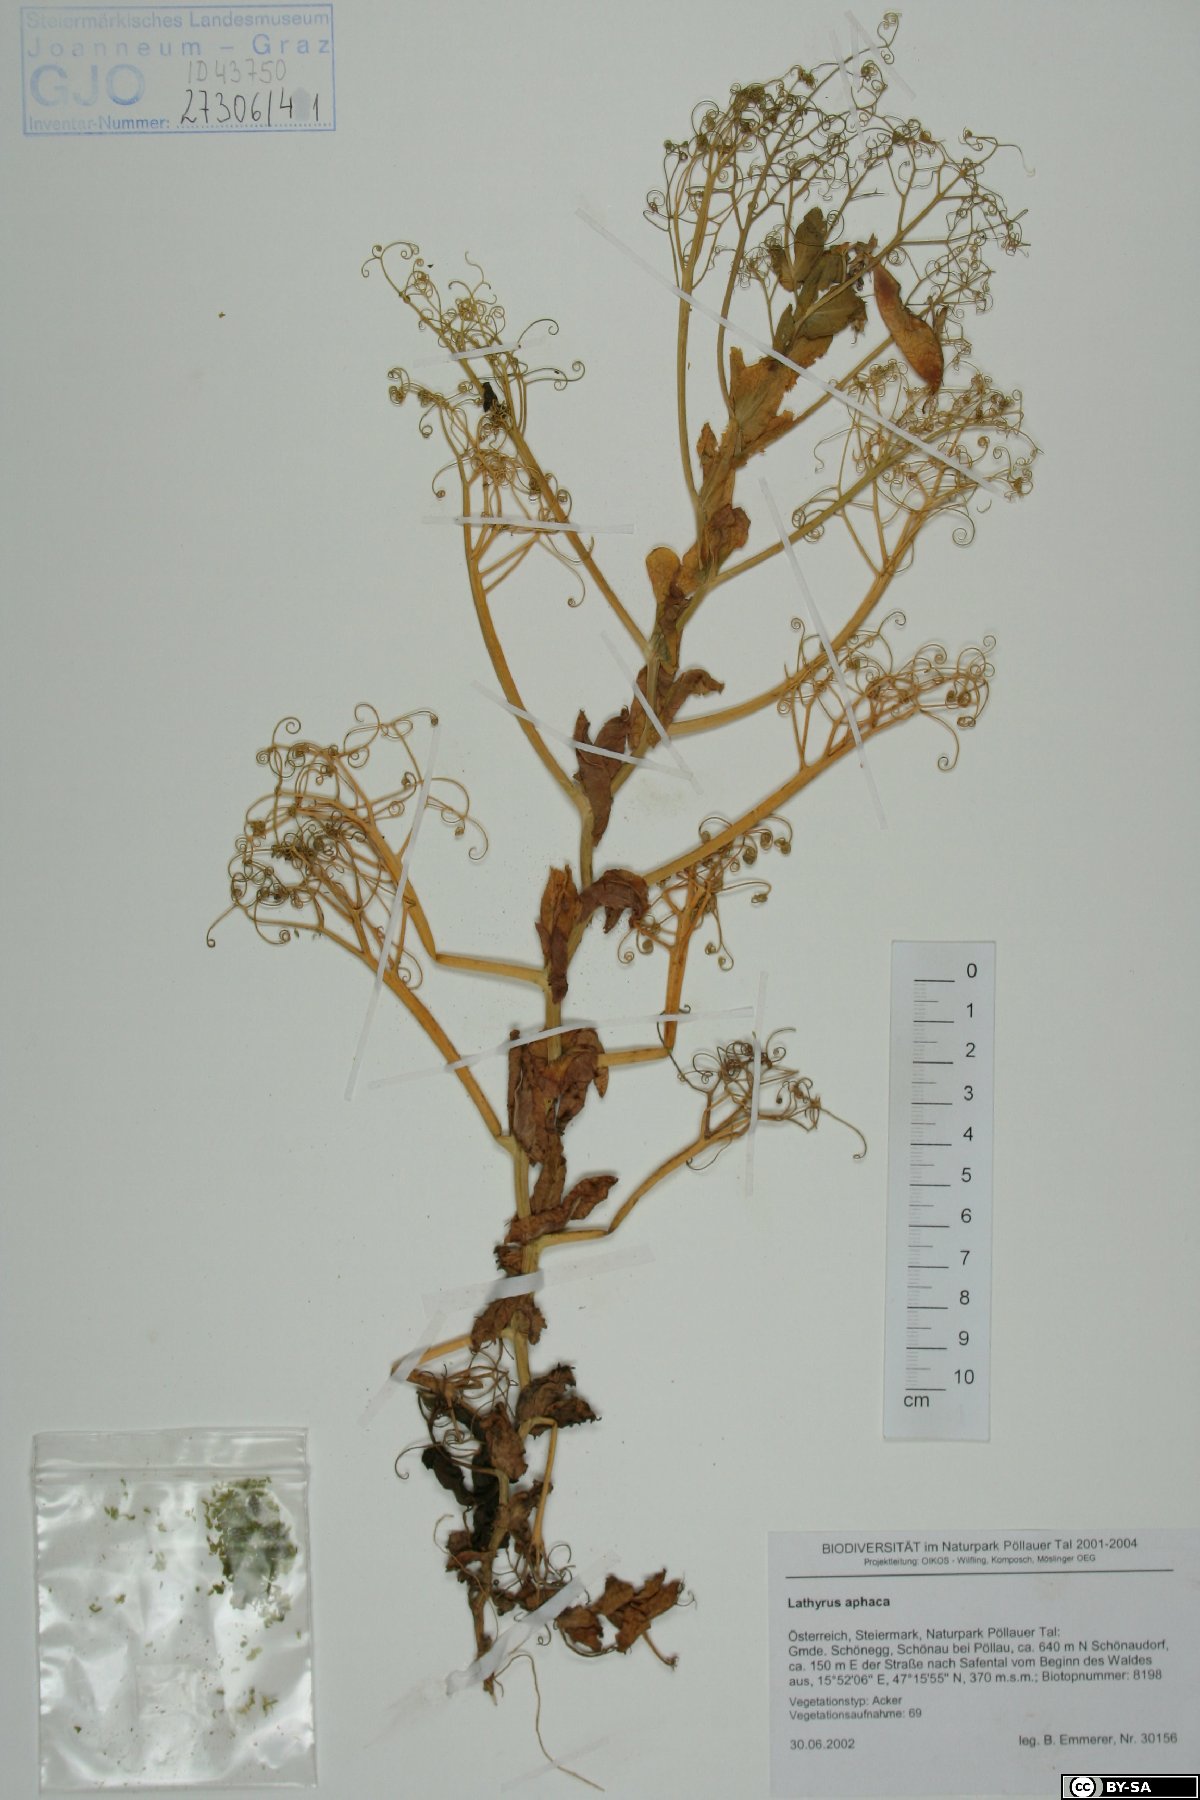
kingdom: Plantae
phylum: Tracheophyta
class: Magnoliopsida
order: Fabales
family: Fabaceae
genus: Lathyrus
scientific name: Lathyrus oleraceus
